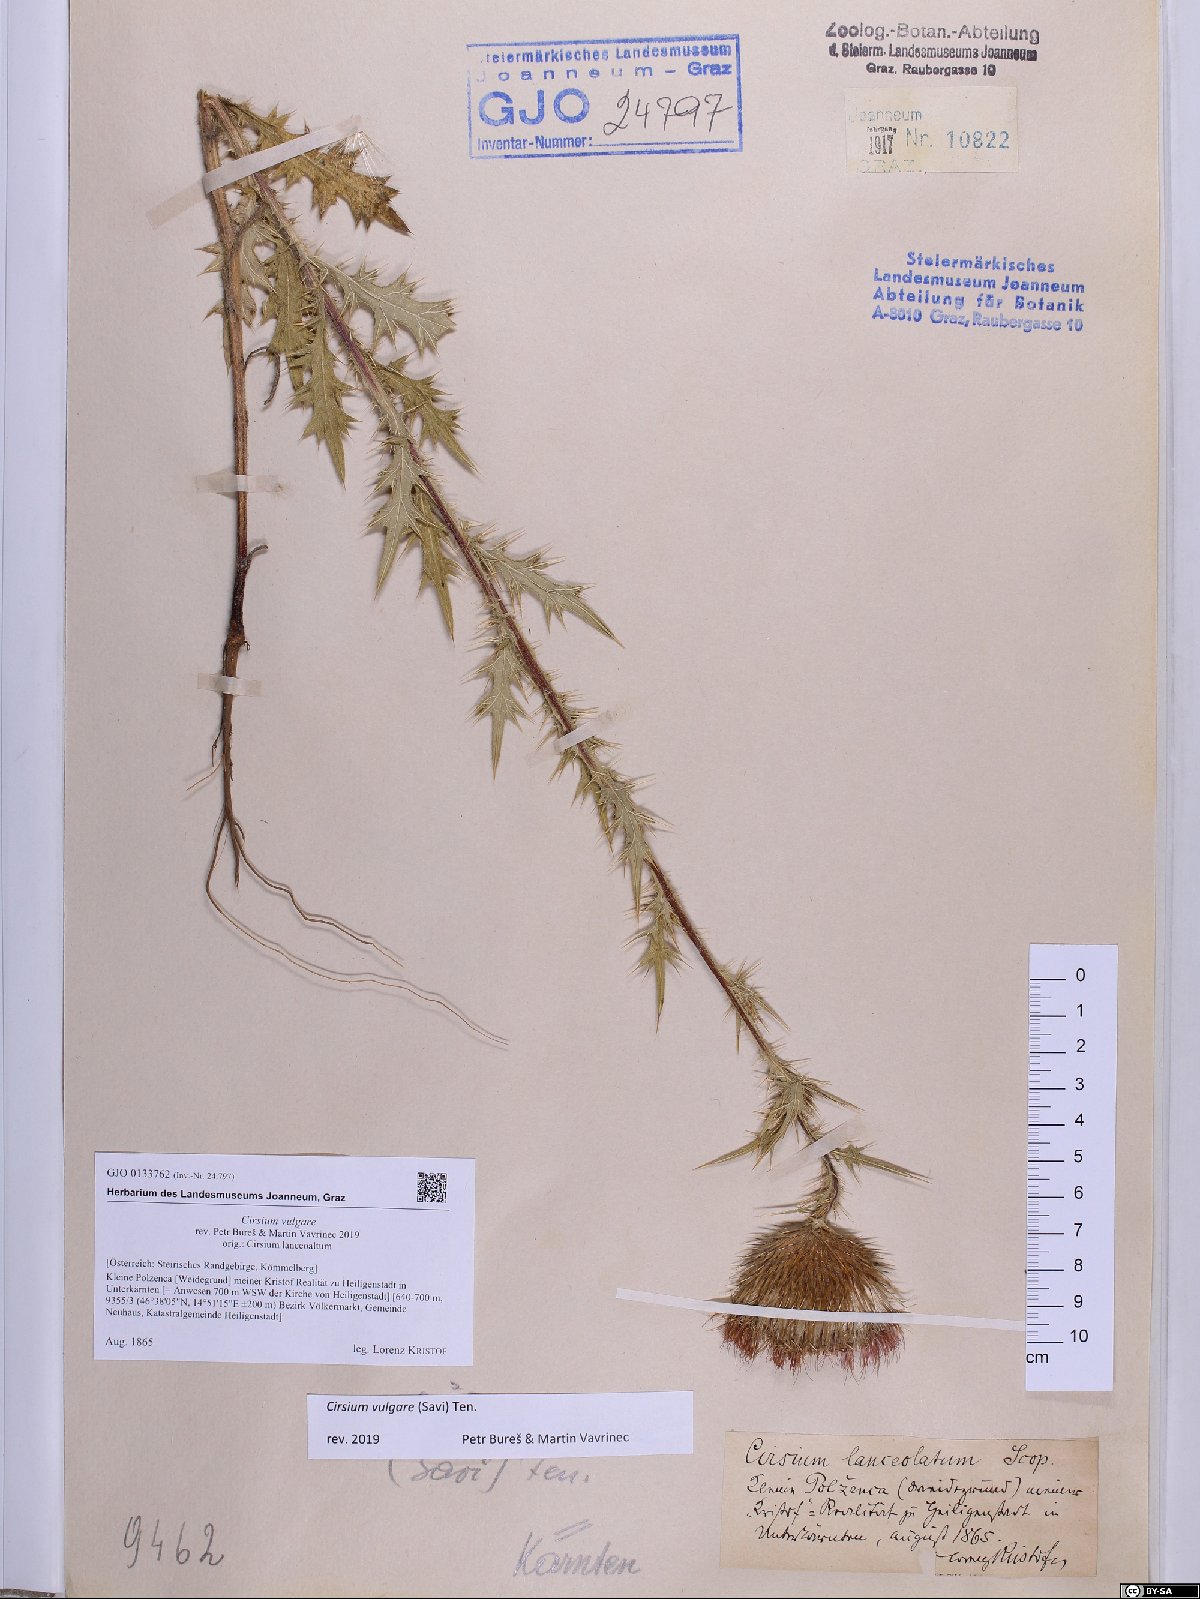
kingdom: Plantae
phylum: Tracheophyta
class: Magnoliopsida
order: Asterales
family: Asteraceae
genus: Cirsium
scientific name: Cirsium vulgare
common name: Bull thistle
